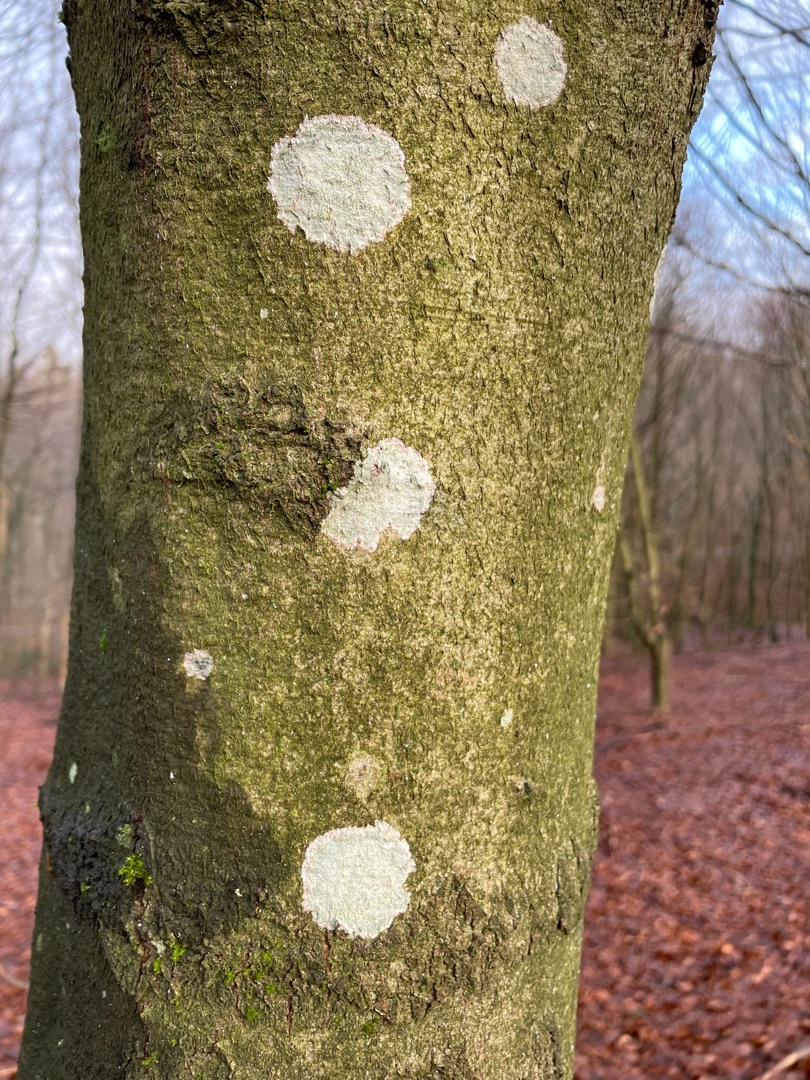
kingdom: Fungi
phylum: Ascomycota
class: Lecanoromycetes
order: Ostropales
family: Phlyctidaceae
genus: Phlyctis
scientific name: Phlyctis argena
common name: Almindelig sølvlav
